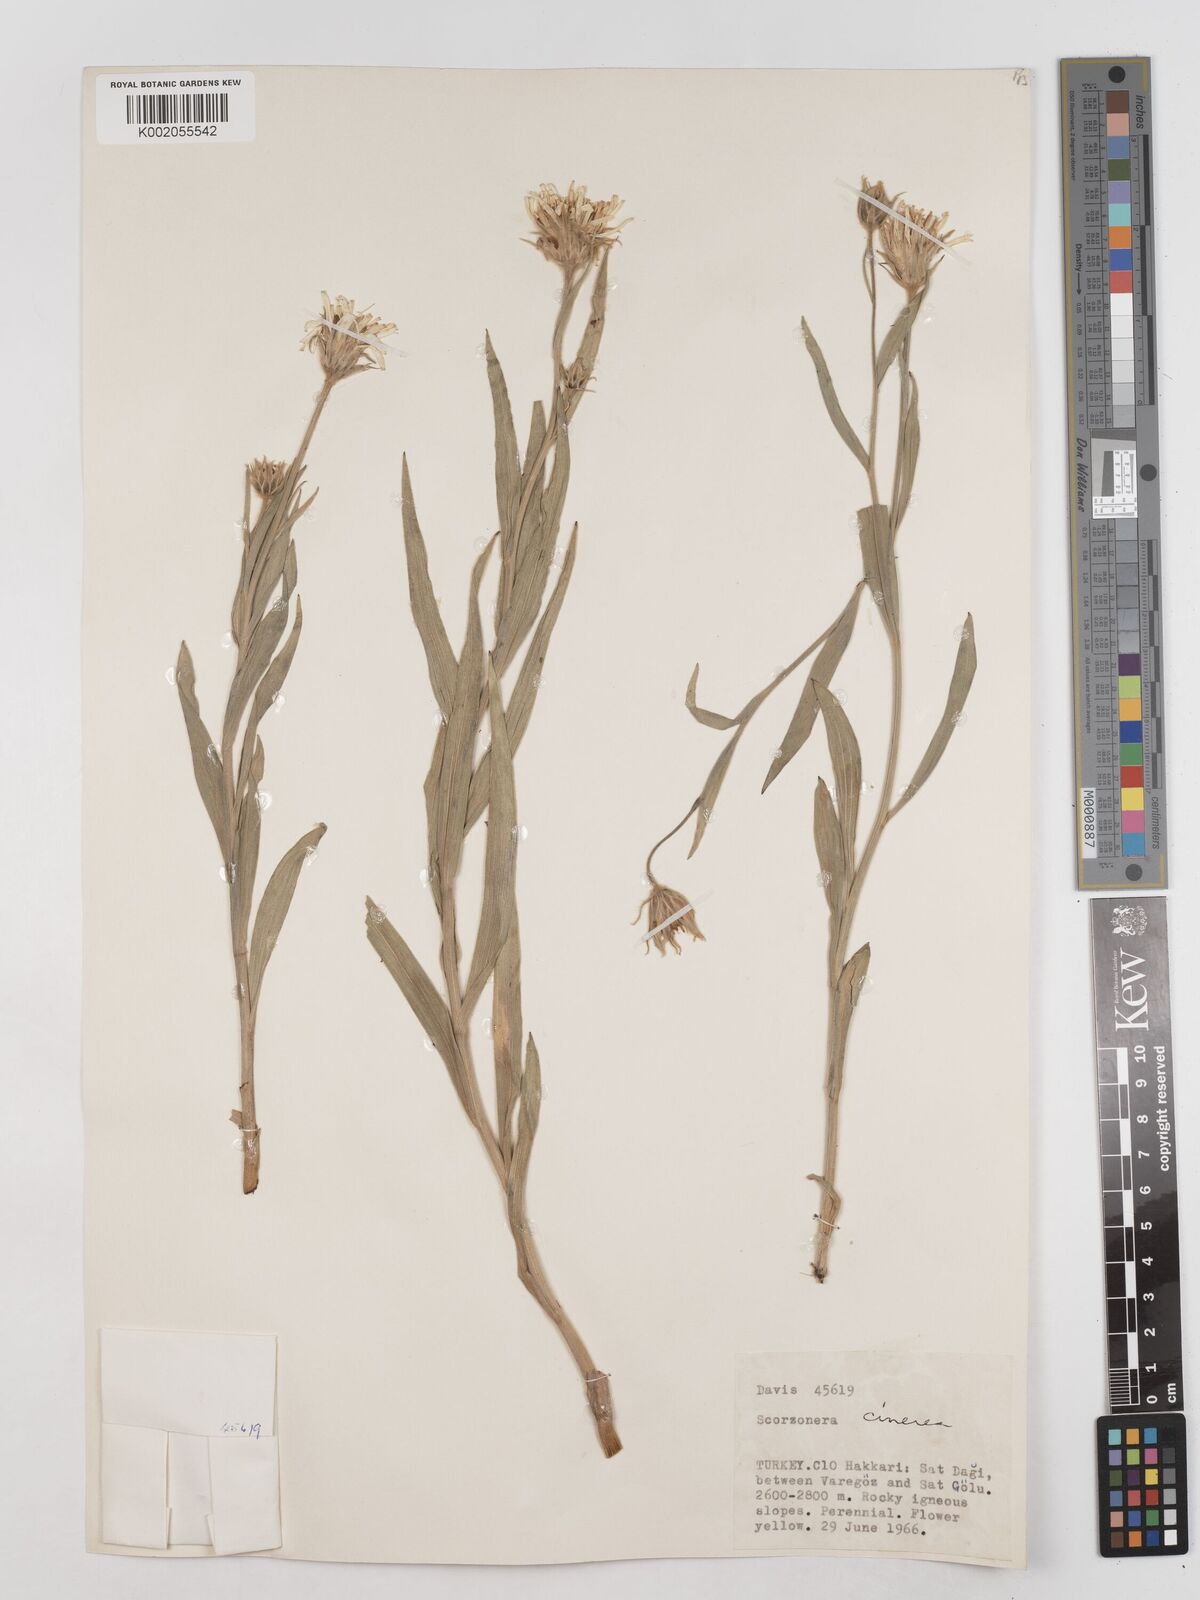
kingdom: Plantae
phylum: Tracheophyta
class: Magnoliopsida
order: Asterales
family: Asteraceae
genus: Cigdemia
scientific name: Cigdemia cinerea
